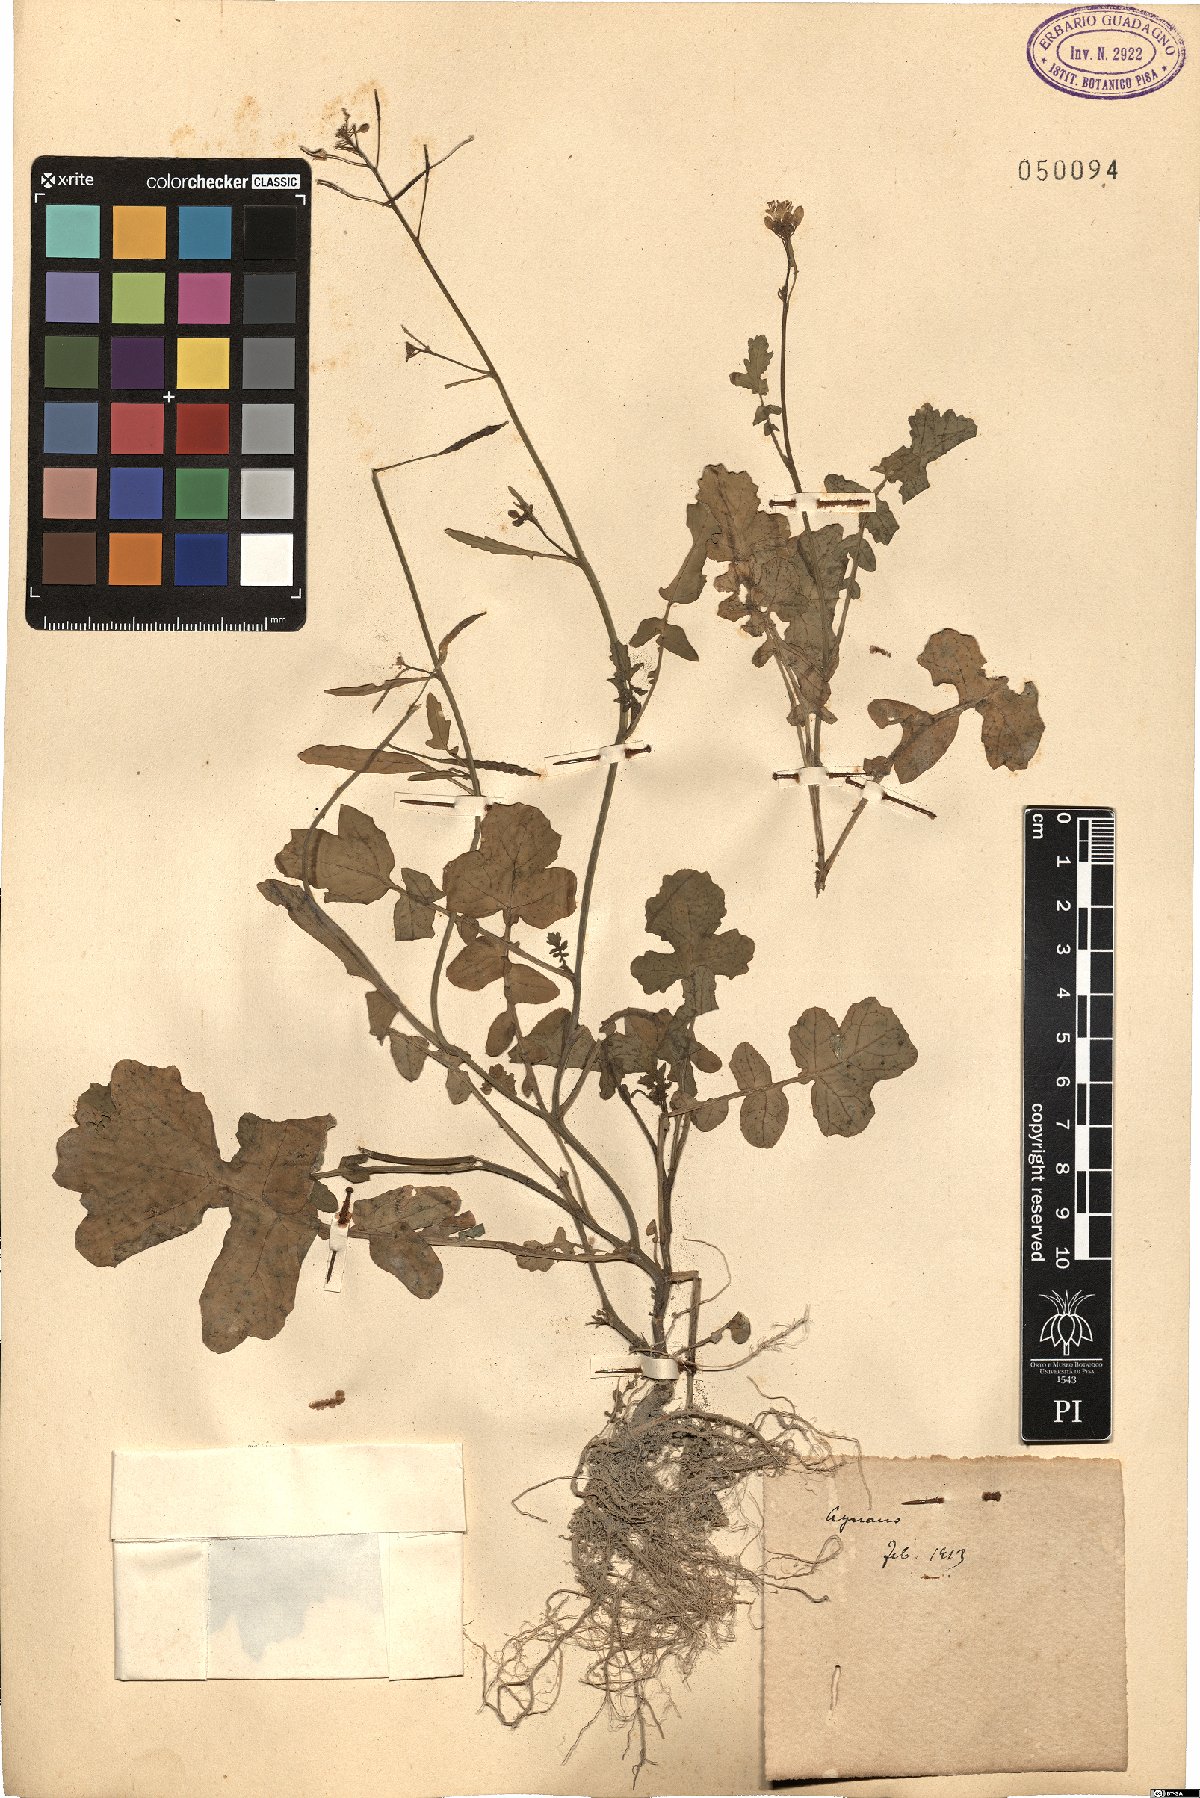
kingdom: Plantae
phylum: Tracheophyta
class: Magnoliopsida
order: Brassicales
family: Brassicaceae
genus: Brassica
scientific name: Brassica
